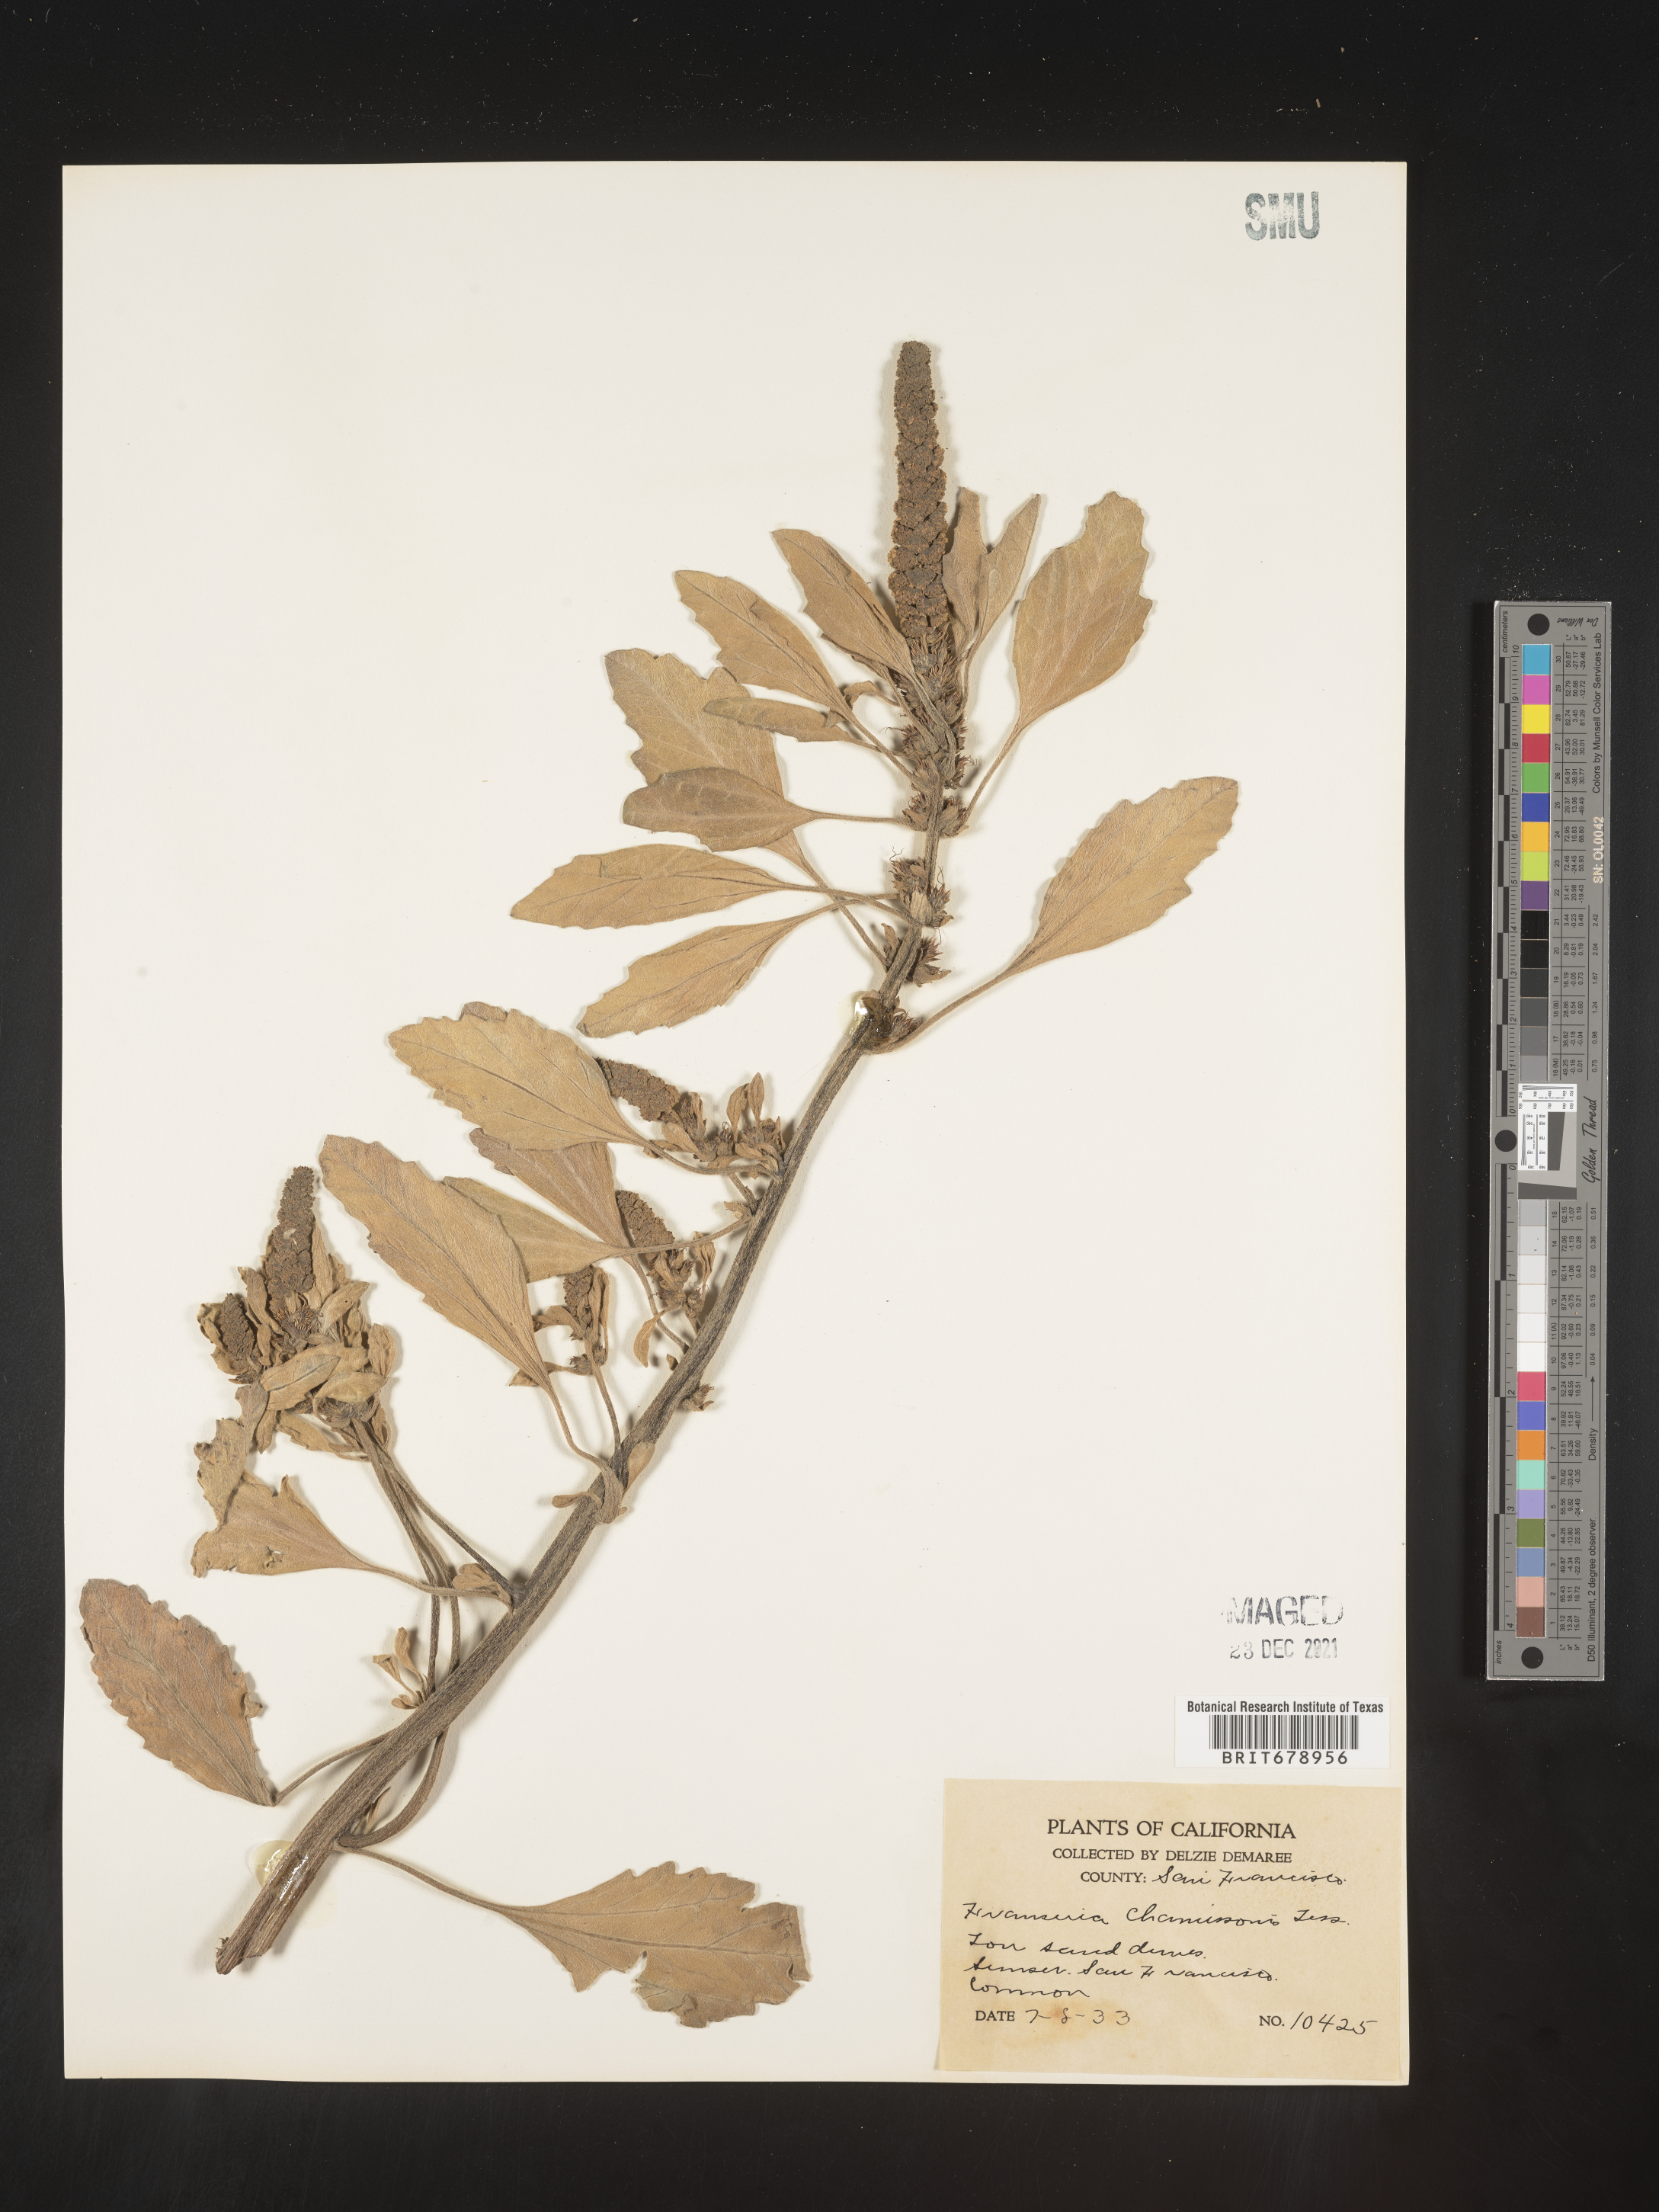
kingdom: Plantae
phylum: Tracheophyta
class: Magnoliopsida
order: Asterales
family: Asteraceae
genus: Ambrosia
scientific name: Ambrosia chamissonis
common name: Beachbur
